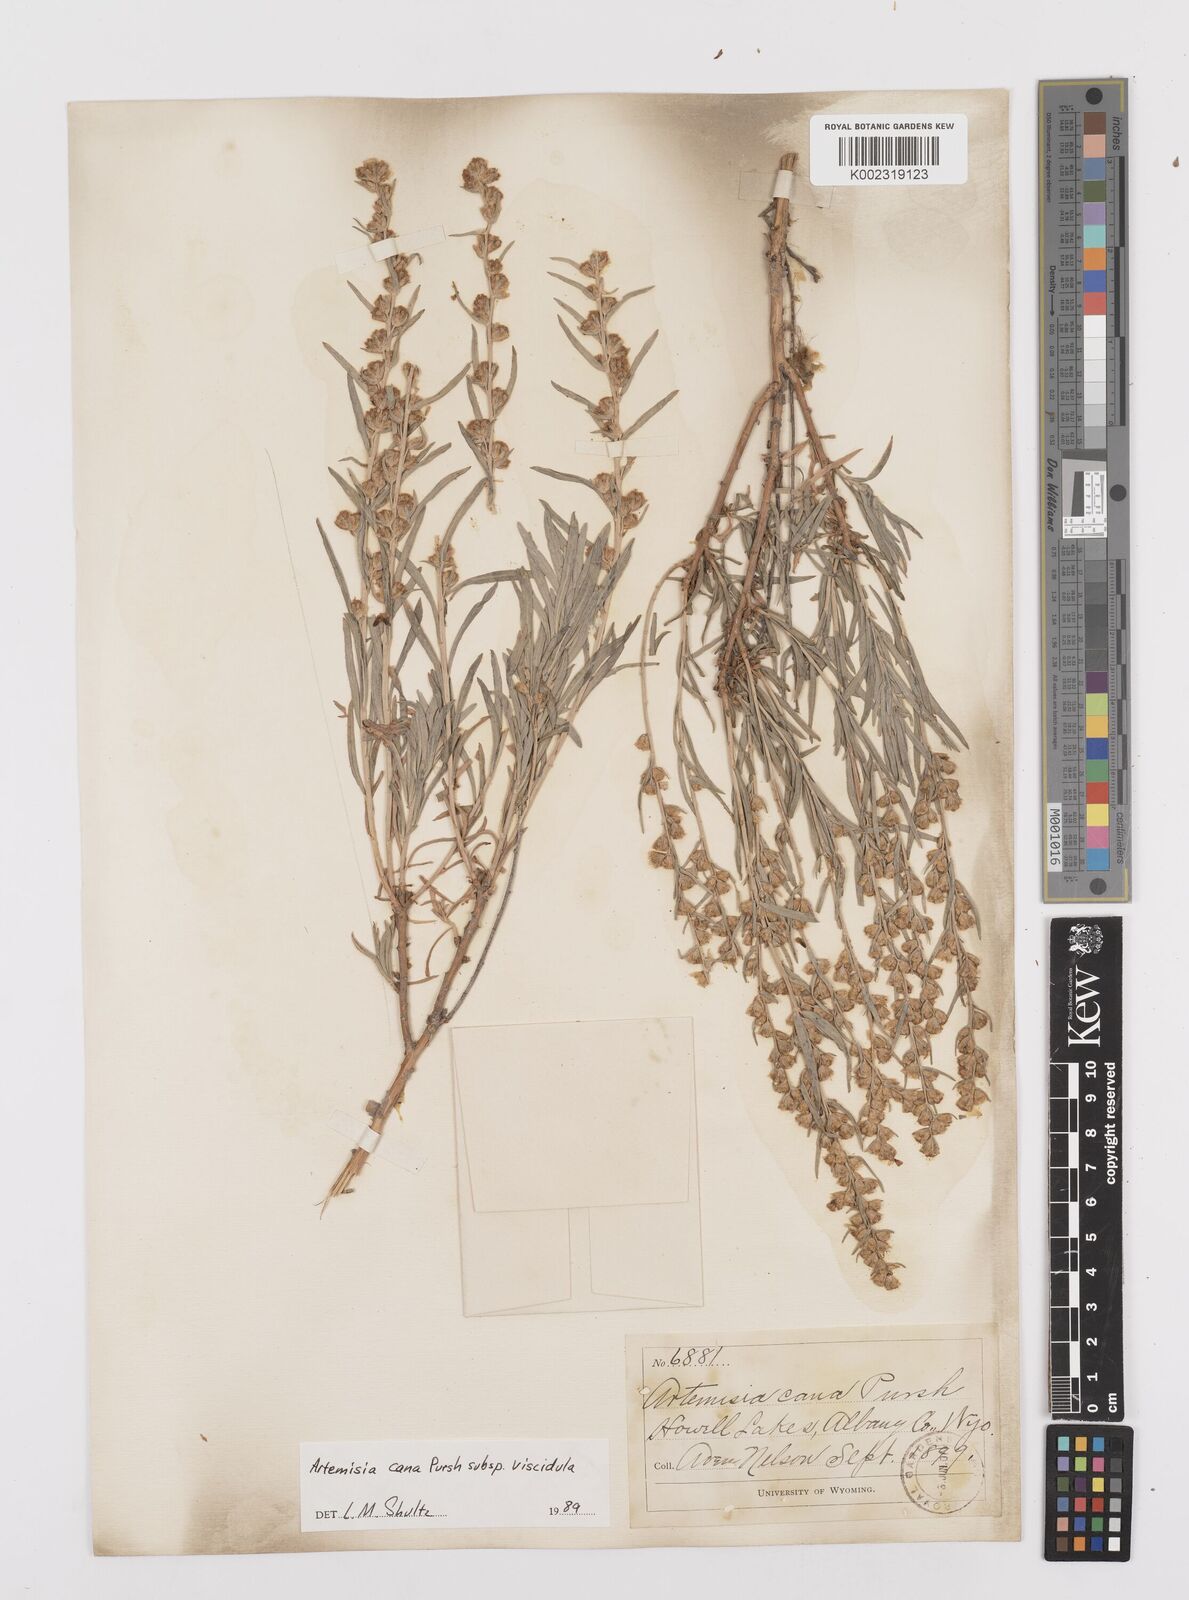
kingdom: Plantae
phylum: Tracheophyta
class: Magnoliopsida
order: Asterales
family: Asteraceae
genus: Artemisia
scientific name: Artemisia cana
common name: Silver sagebrush
